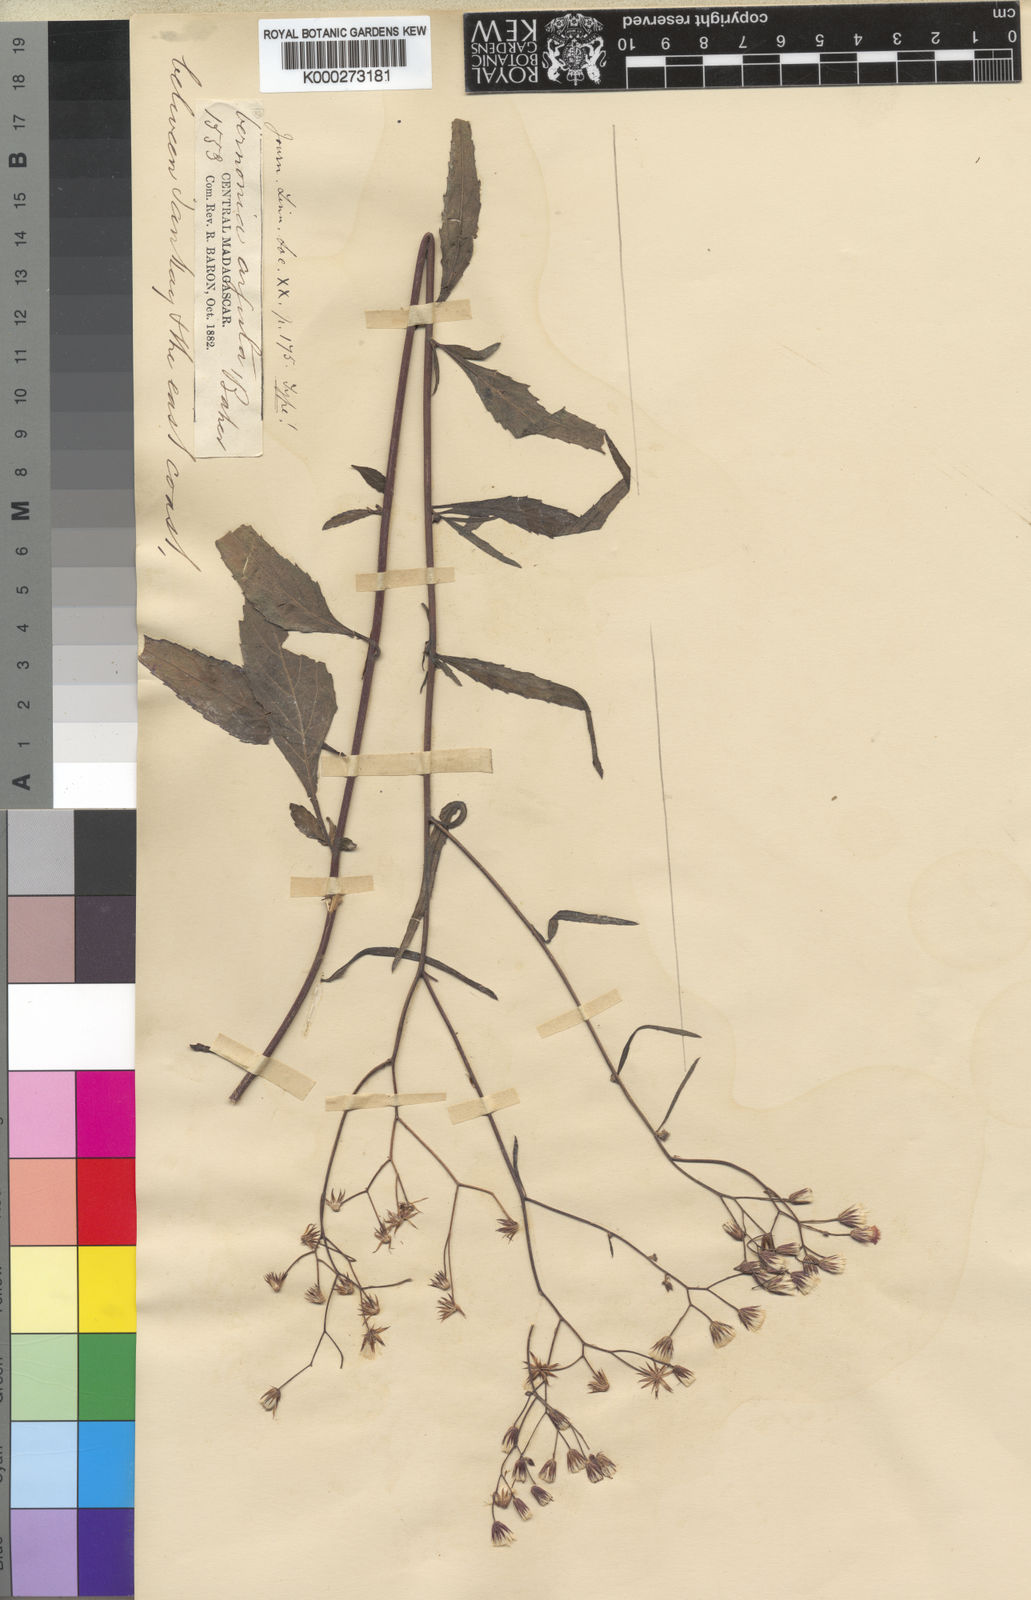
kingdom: Plantae
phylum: Tracheophyta
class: Magnoliopsida
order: Asterales
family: Asteraceae
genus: Cyanthillium
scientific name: Cyanthillium cinereum
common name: Little ironweed
